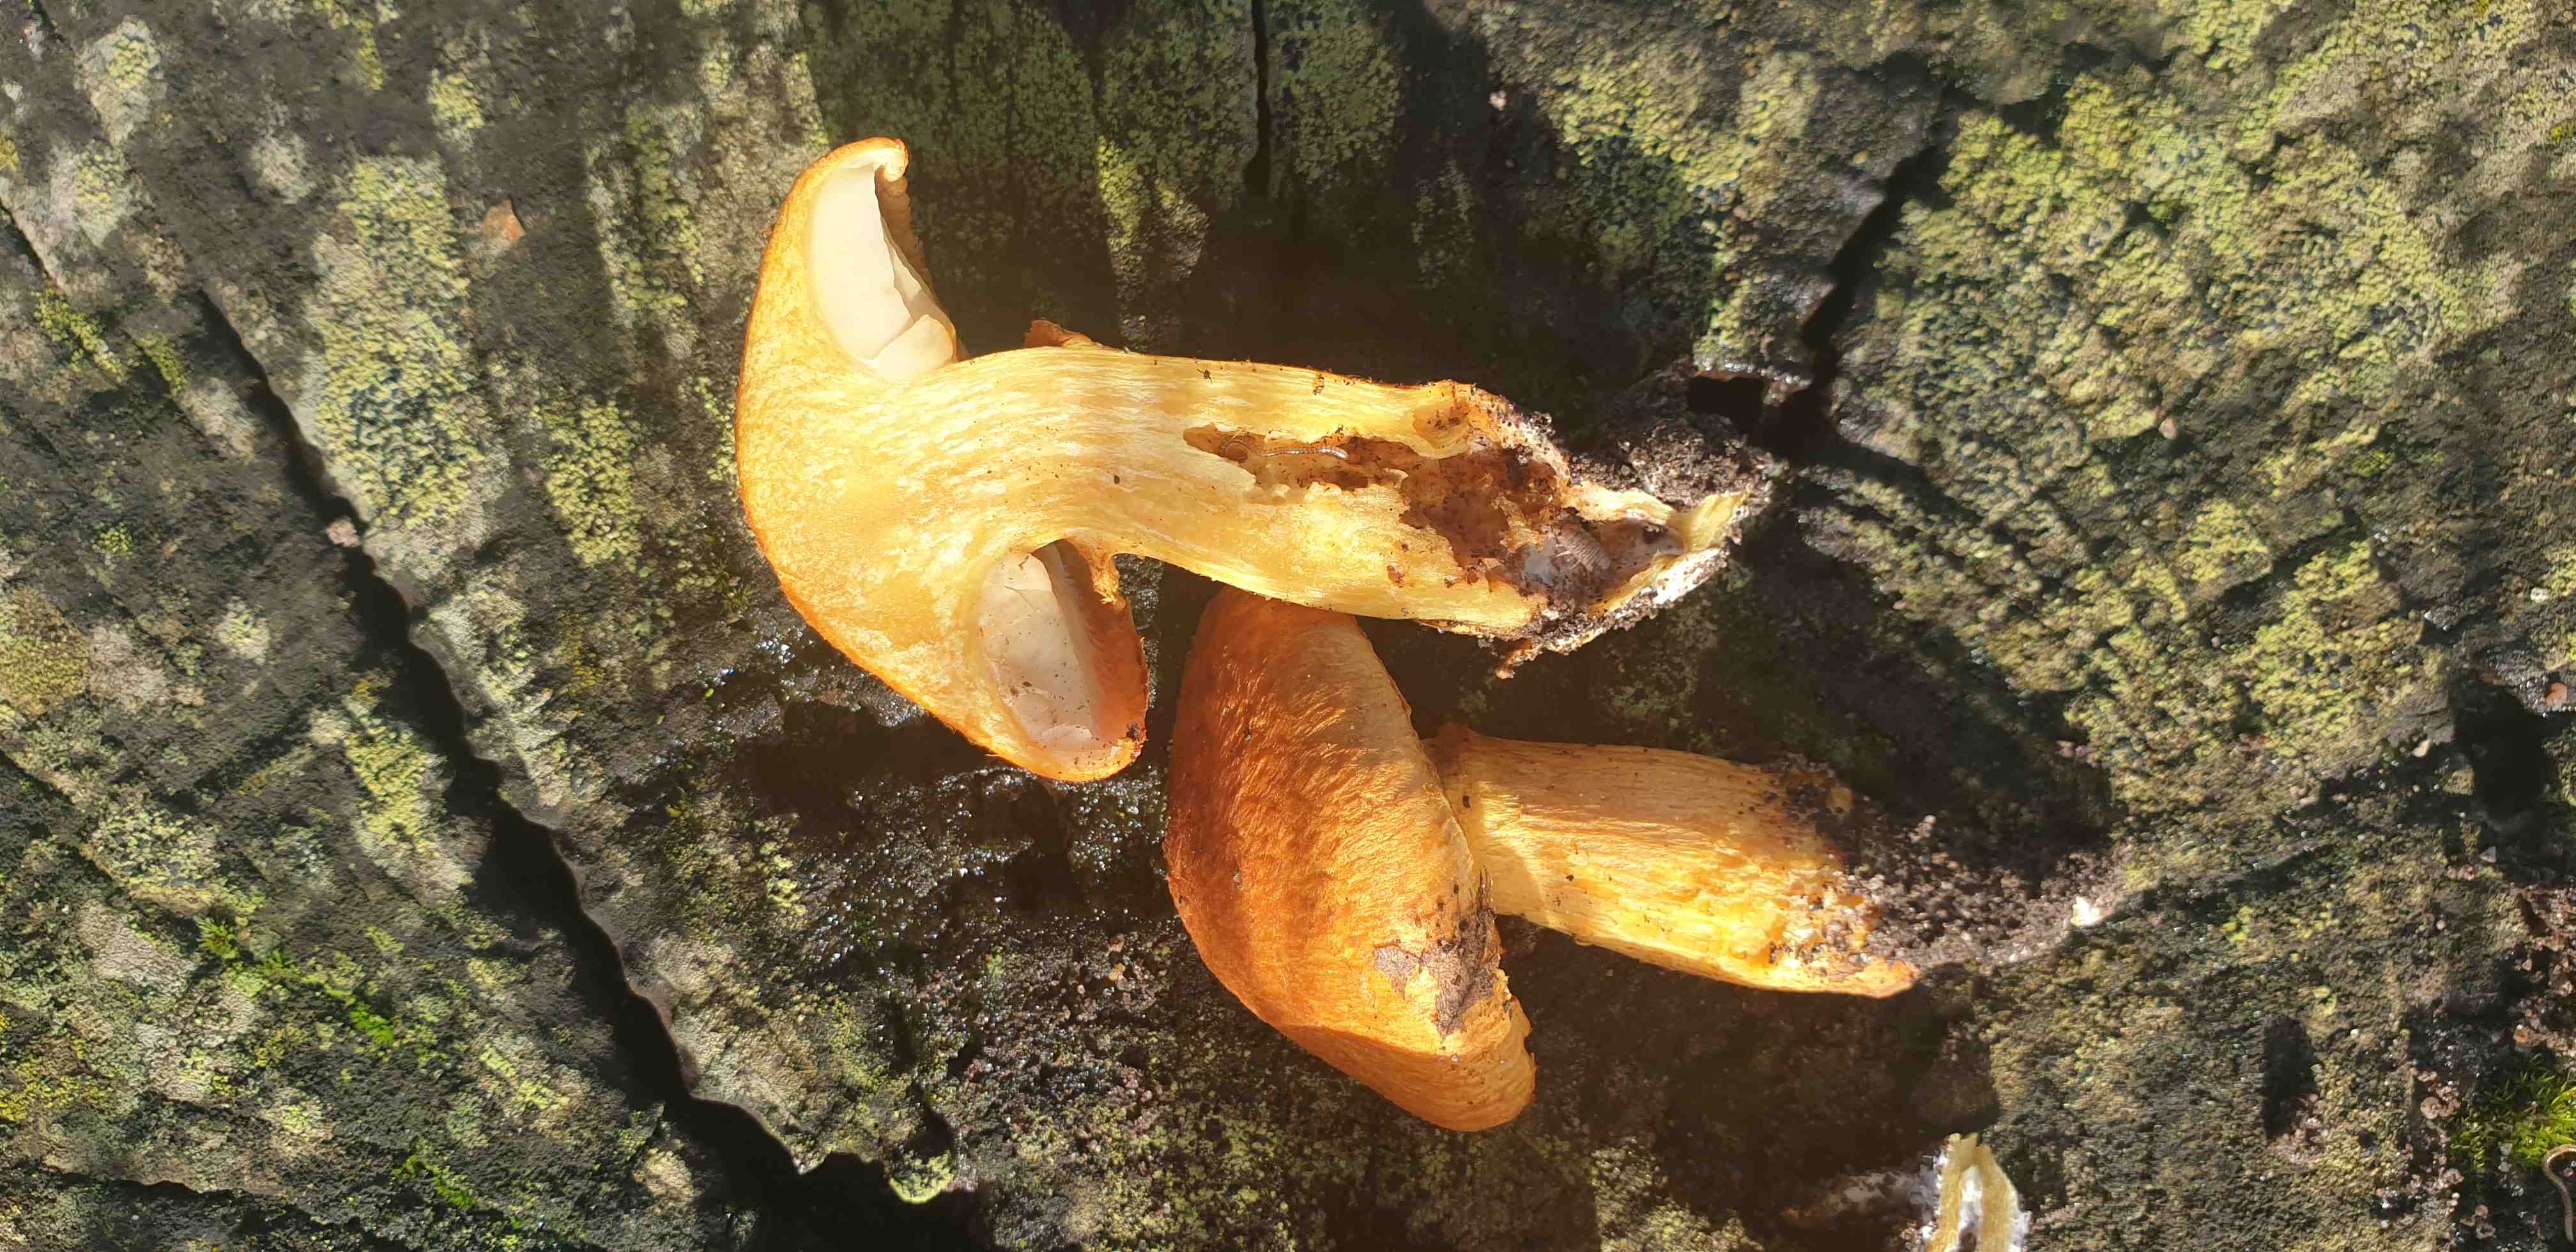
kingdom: Fungi
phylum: Basidiomycota
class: Agaricomycetes
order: Agaricales
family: Hymenogastraceae
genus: Gymnopilus
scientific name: Gymnopilus spectabilis
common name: fibret flammehat
